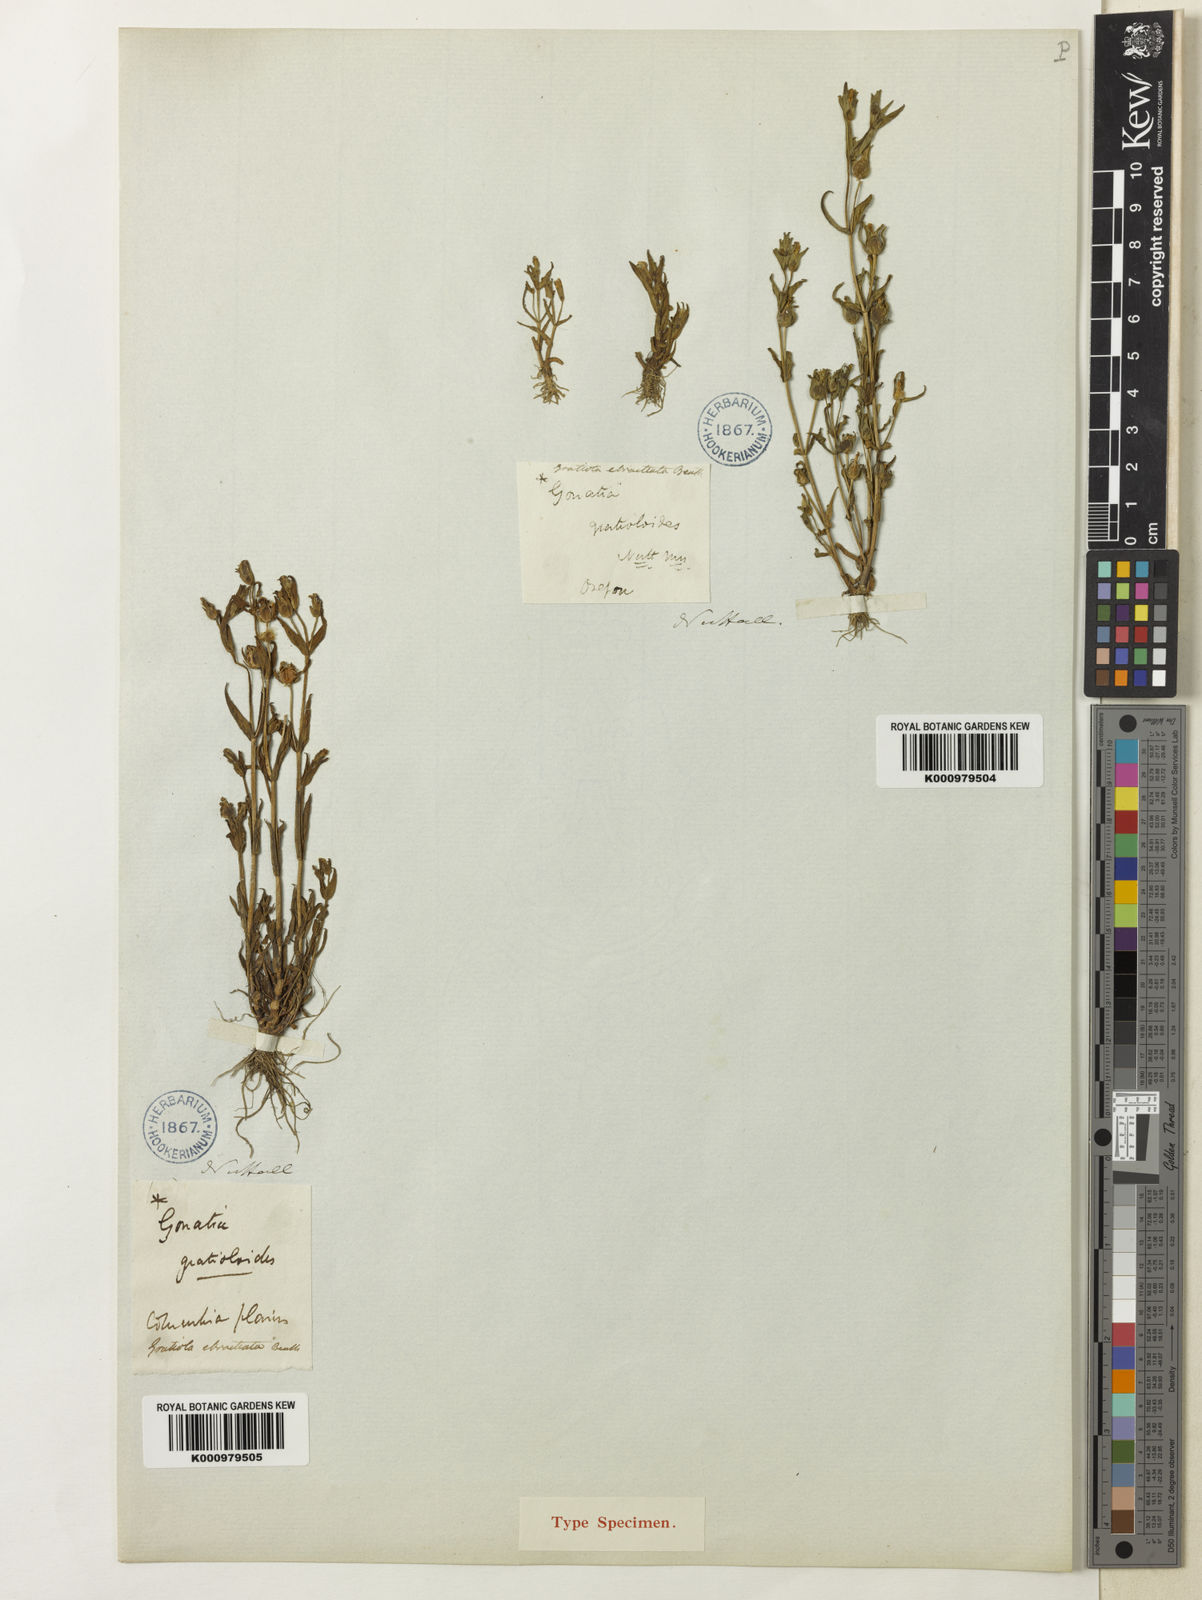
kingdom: Plantae
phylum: Tracheophyta
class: Magnoliopsida
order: Lamiales
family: Plantaginaceae
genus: Gratiola
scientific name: Gratiola
